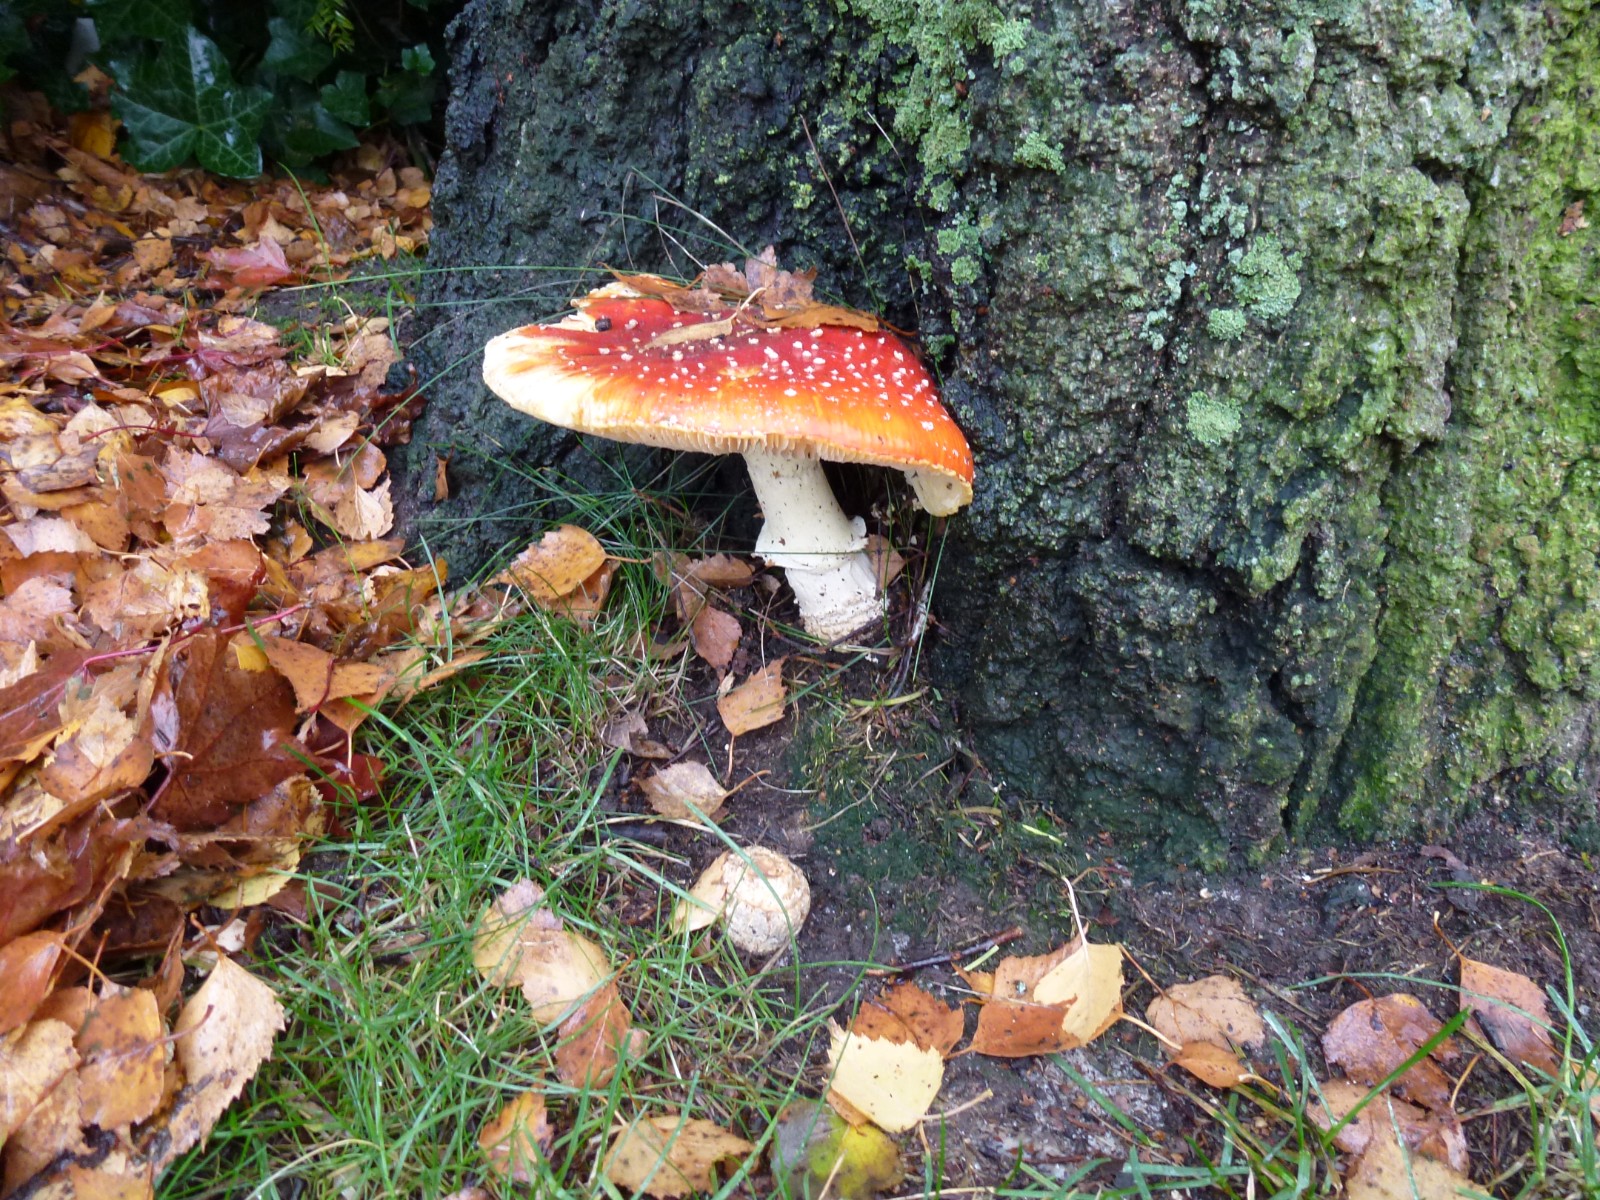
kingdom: Fungi
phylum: Basidiomycota
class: Agaricomycetes
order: Agaricales
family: Amanitaceae
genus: Amanita
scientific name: Amanita muscaria
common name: rød fluesvamp
